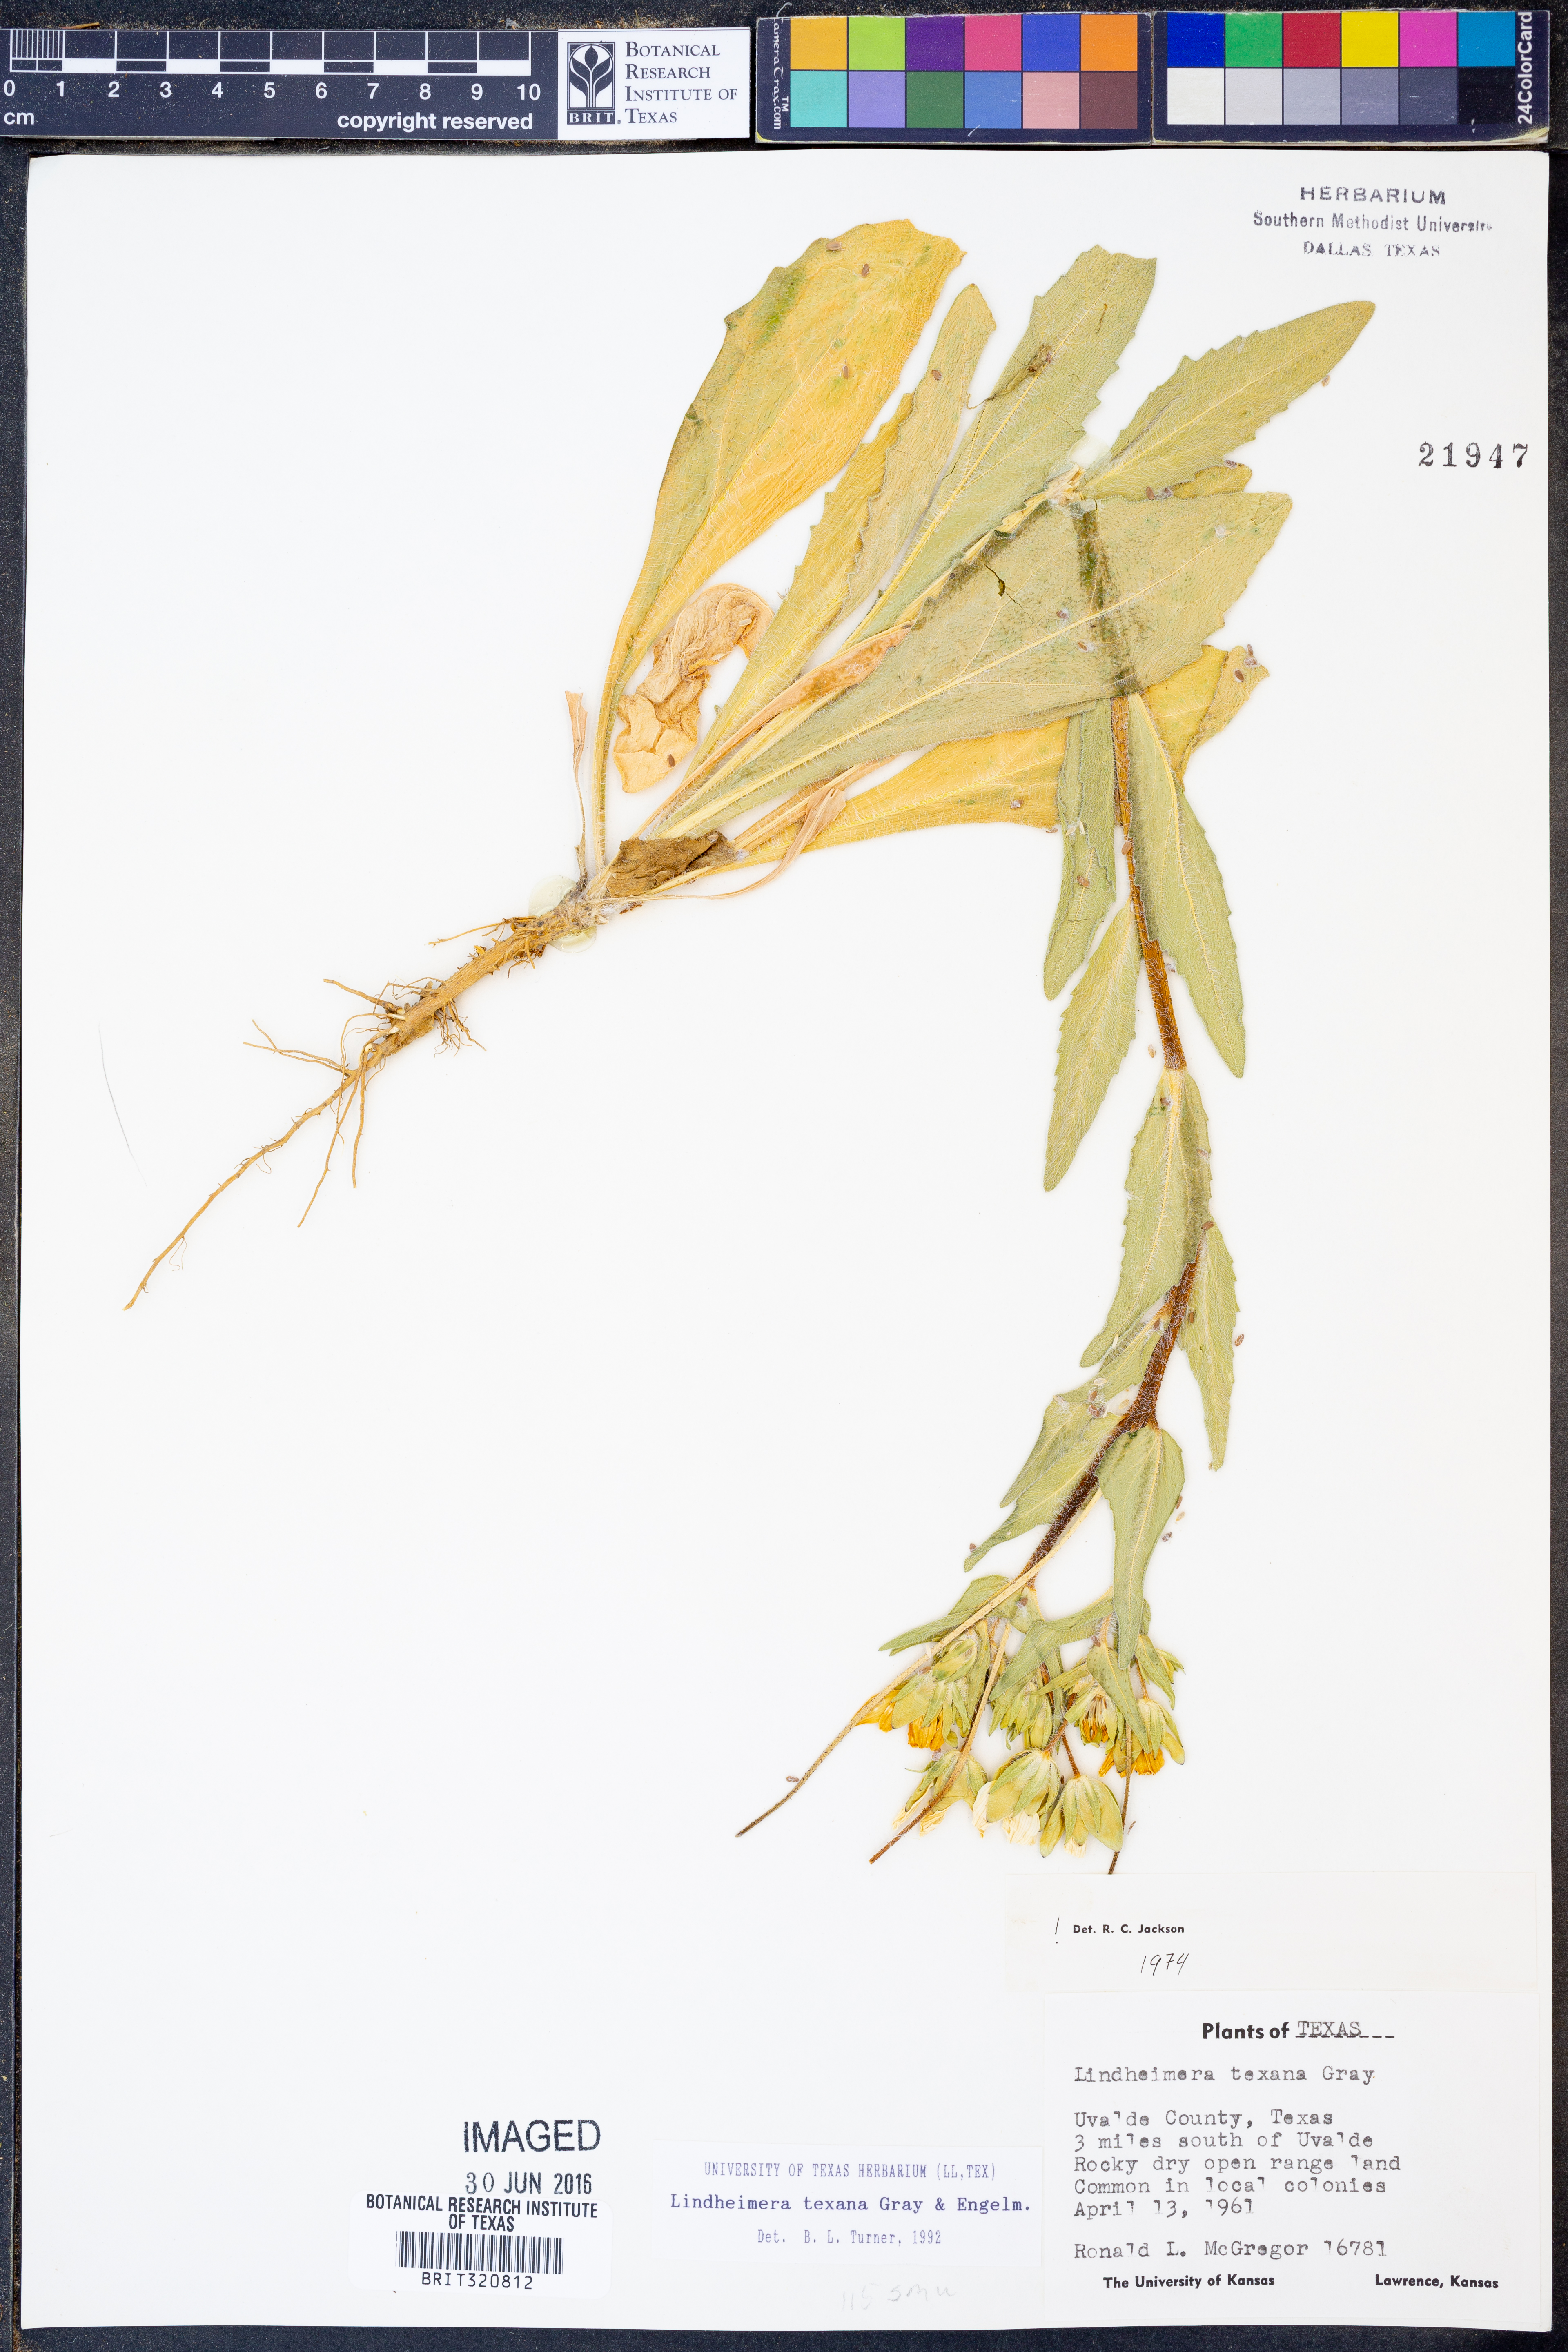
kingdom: Plantae
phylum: Tracheophyta
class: Magnoliopsida
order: Asterales
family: Asteraceae
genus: Lindheimera
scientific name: Lindheimera texana
